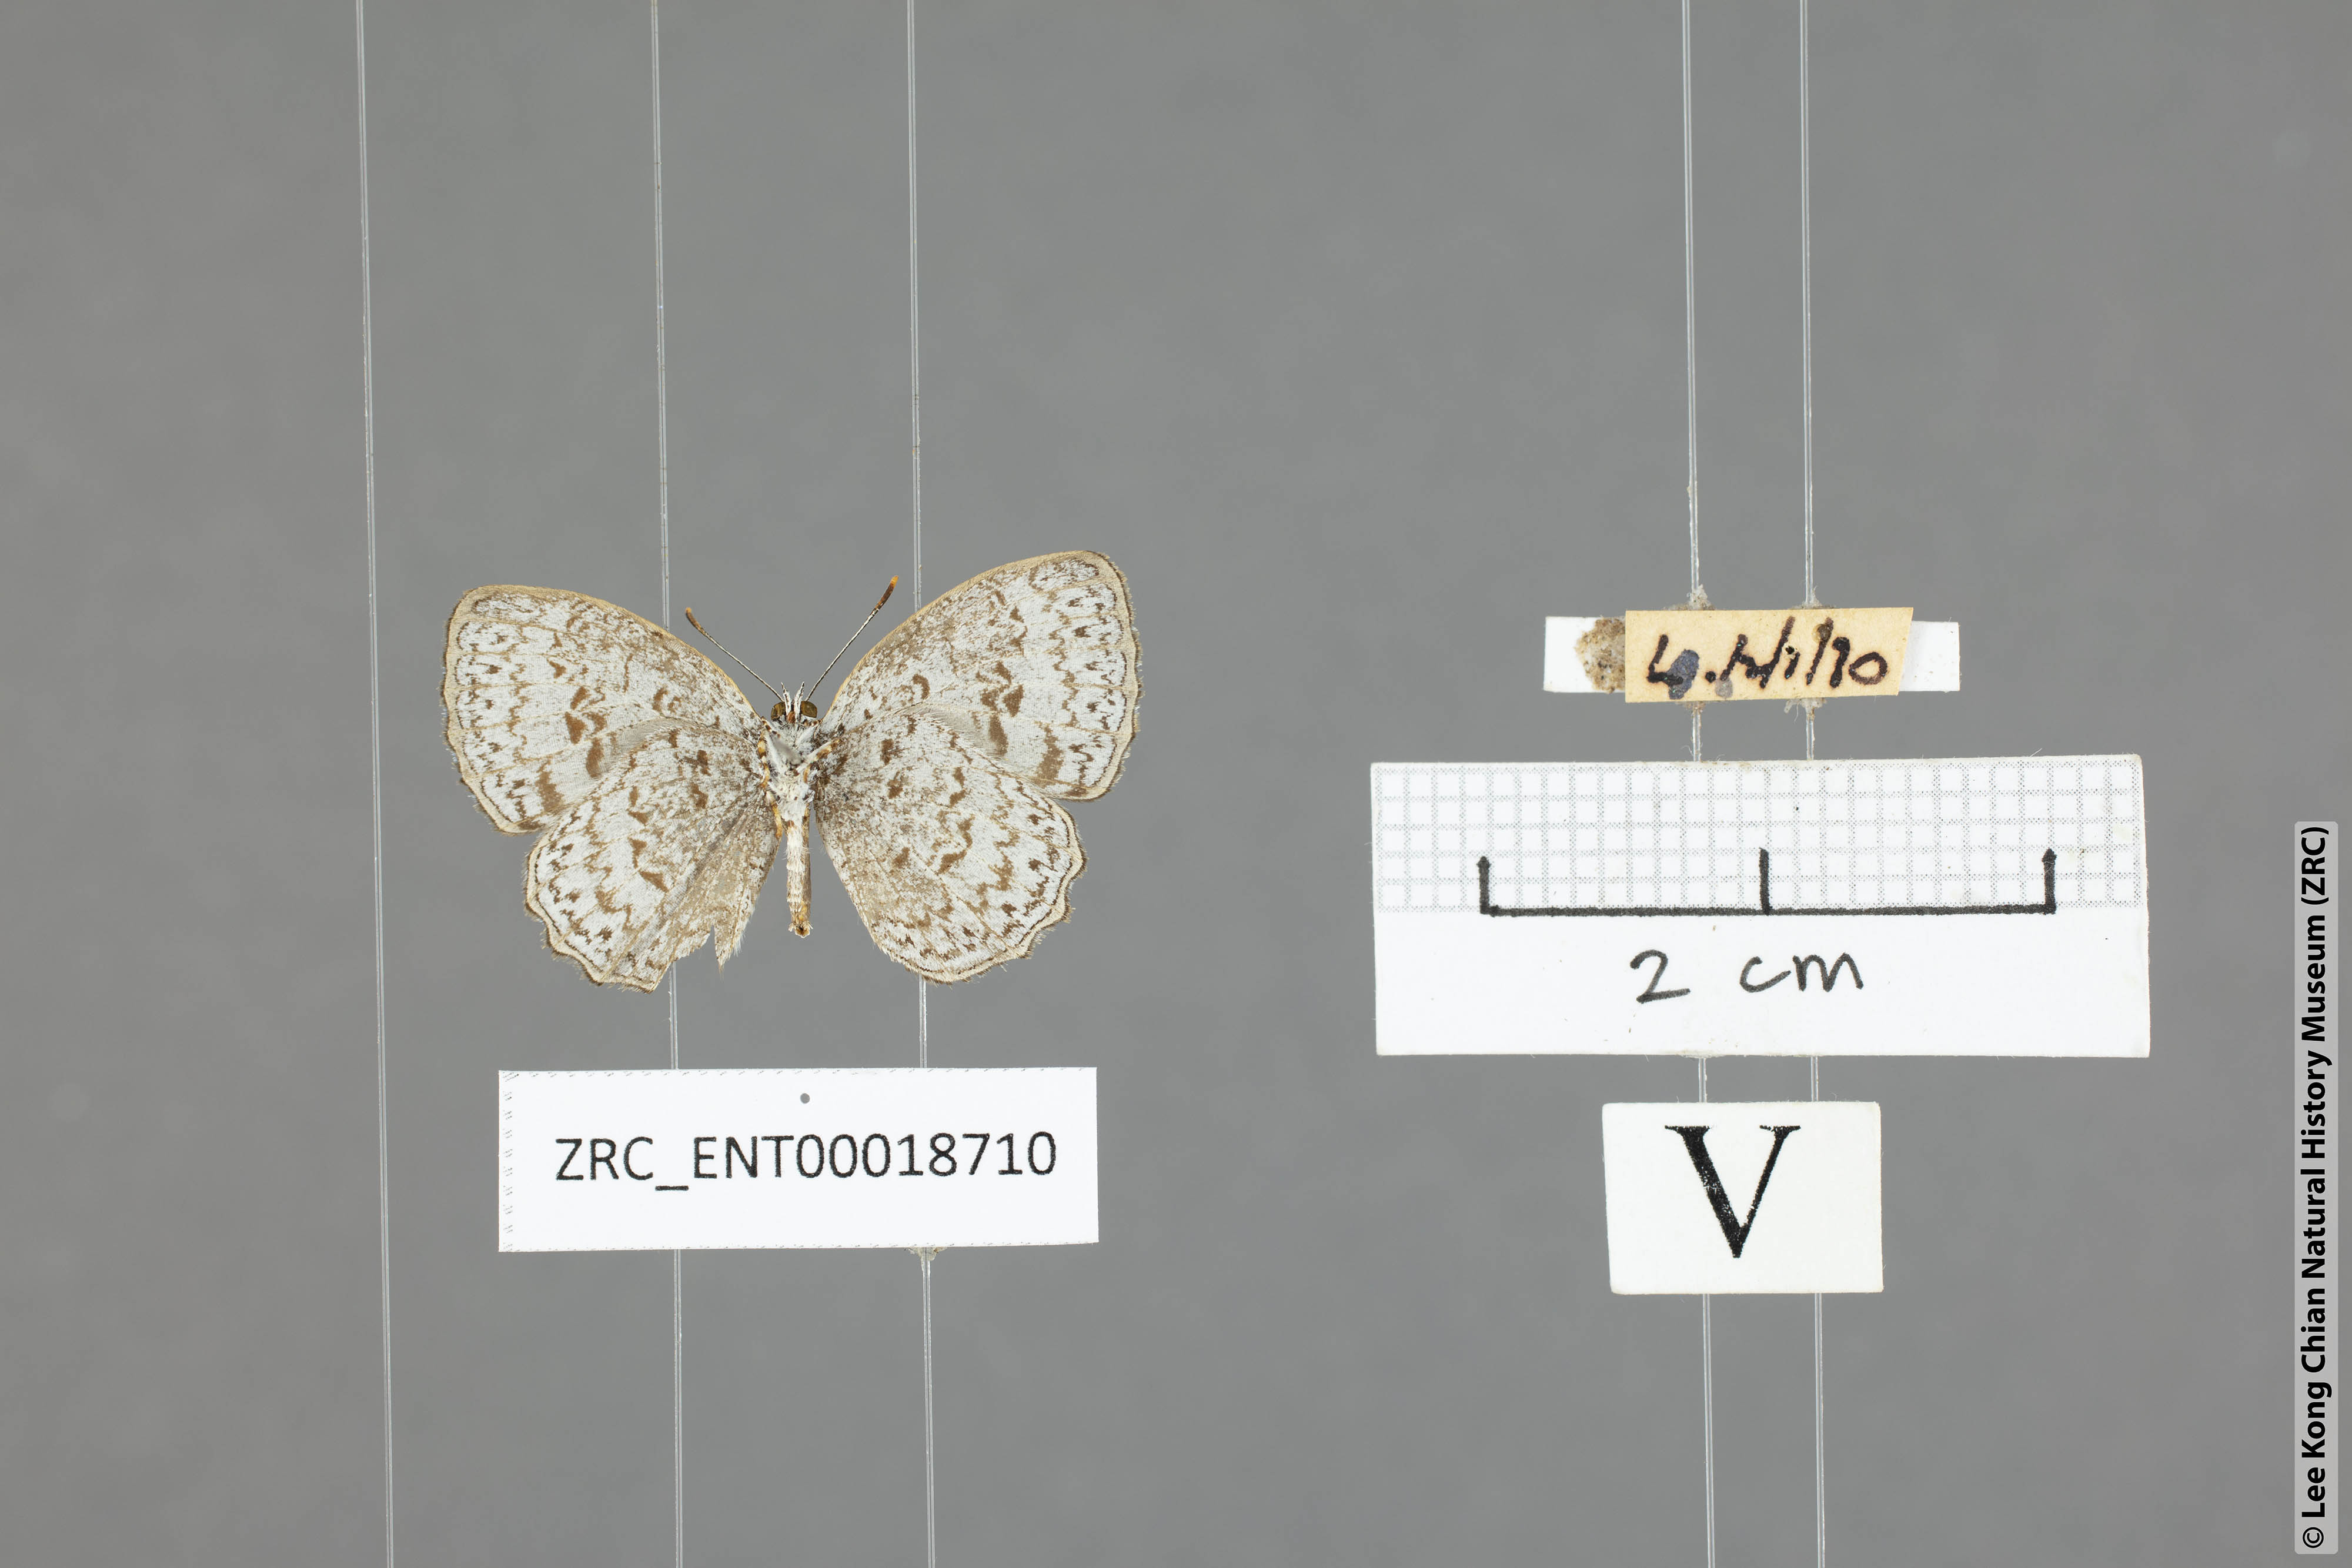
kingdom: Animalia
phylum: Arthropoda
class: Insecta
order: Lepidoptera
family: Lycaenidae
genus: Cyaniriodes
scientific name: Cyaniriodes libna
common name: Emerald
